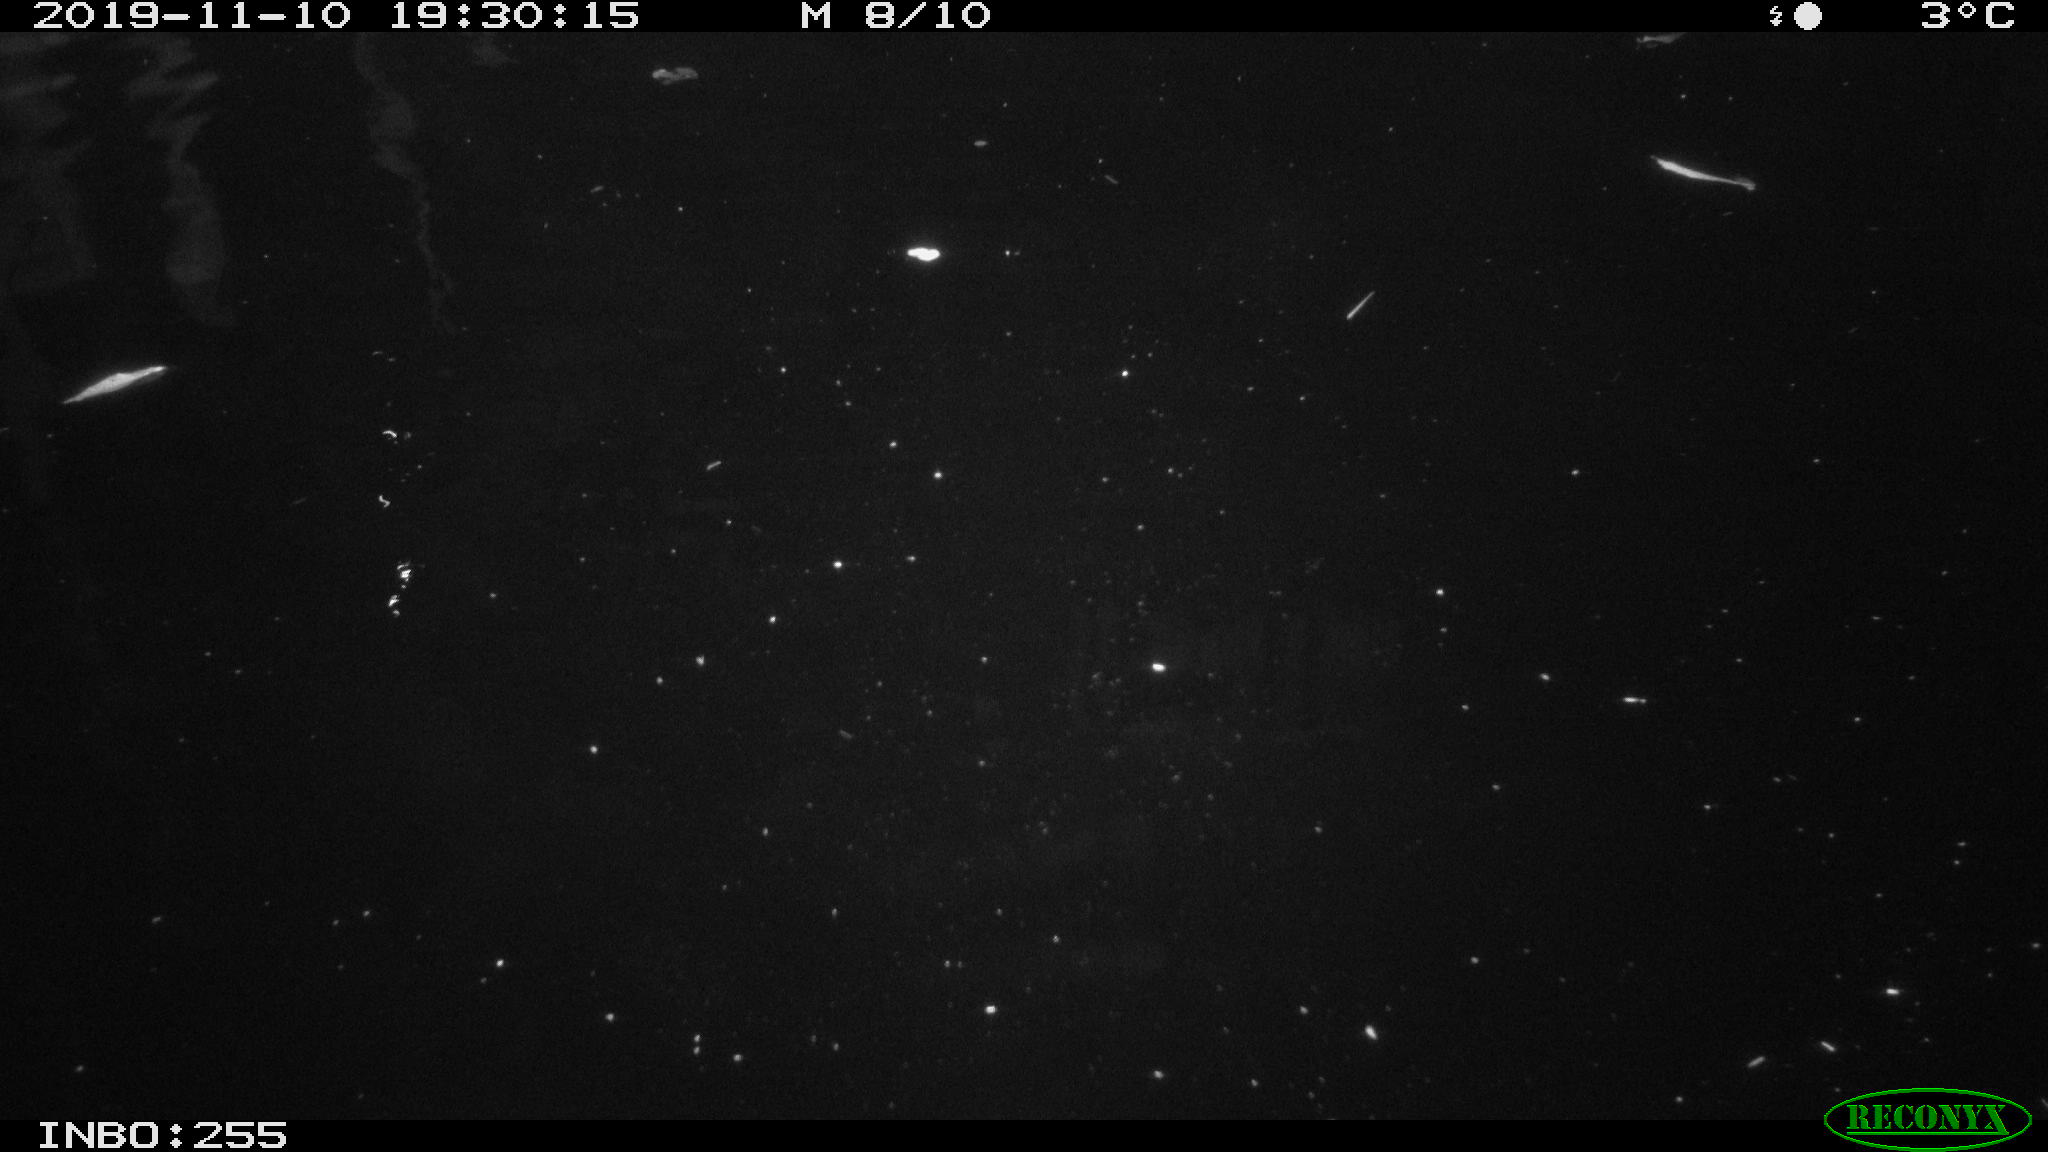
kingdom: Animalia
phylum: Chordata
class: Mammalia
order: Rodentia
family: Cricetidae
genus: Ondatra
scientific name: Ondatra zibethicus
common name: Muskrat
